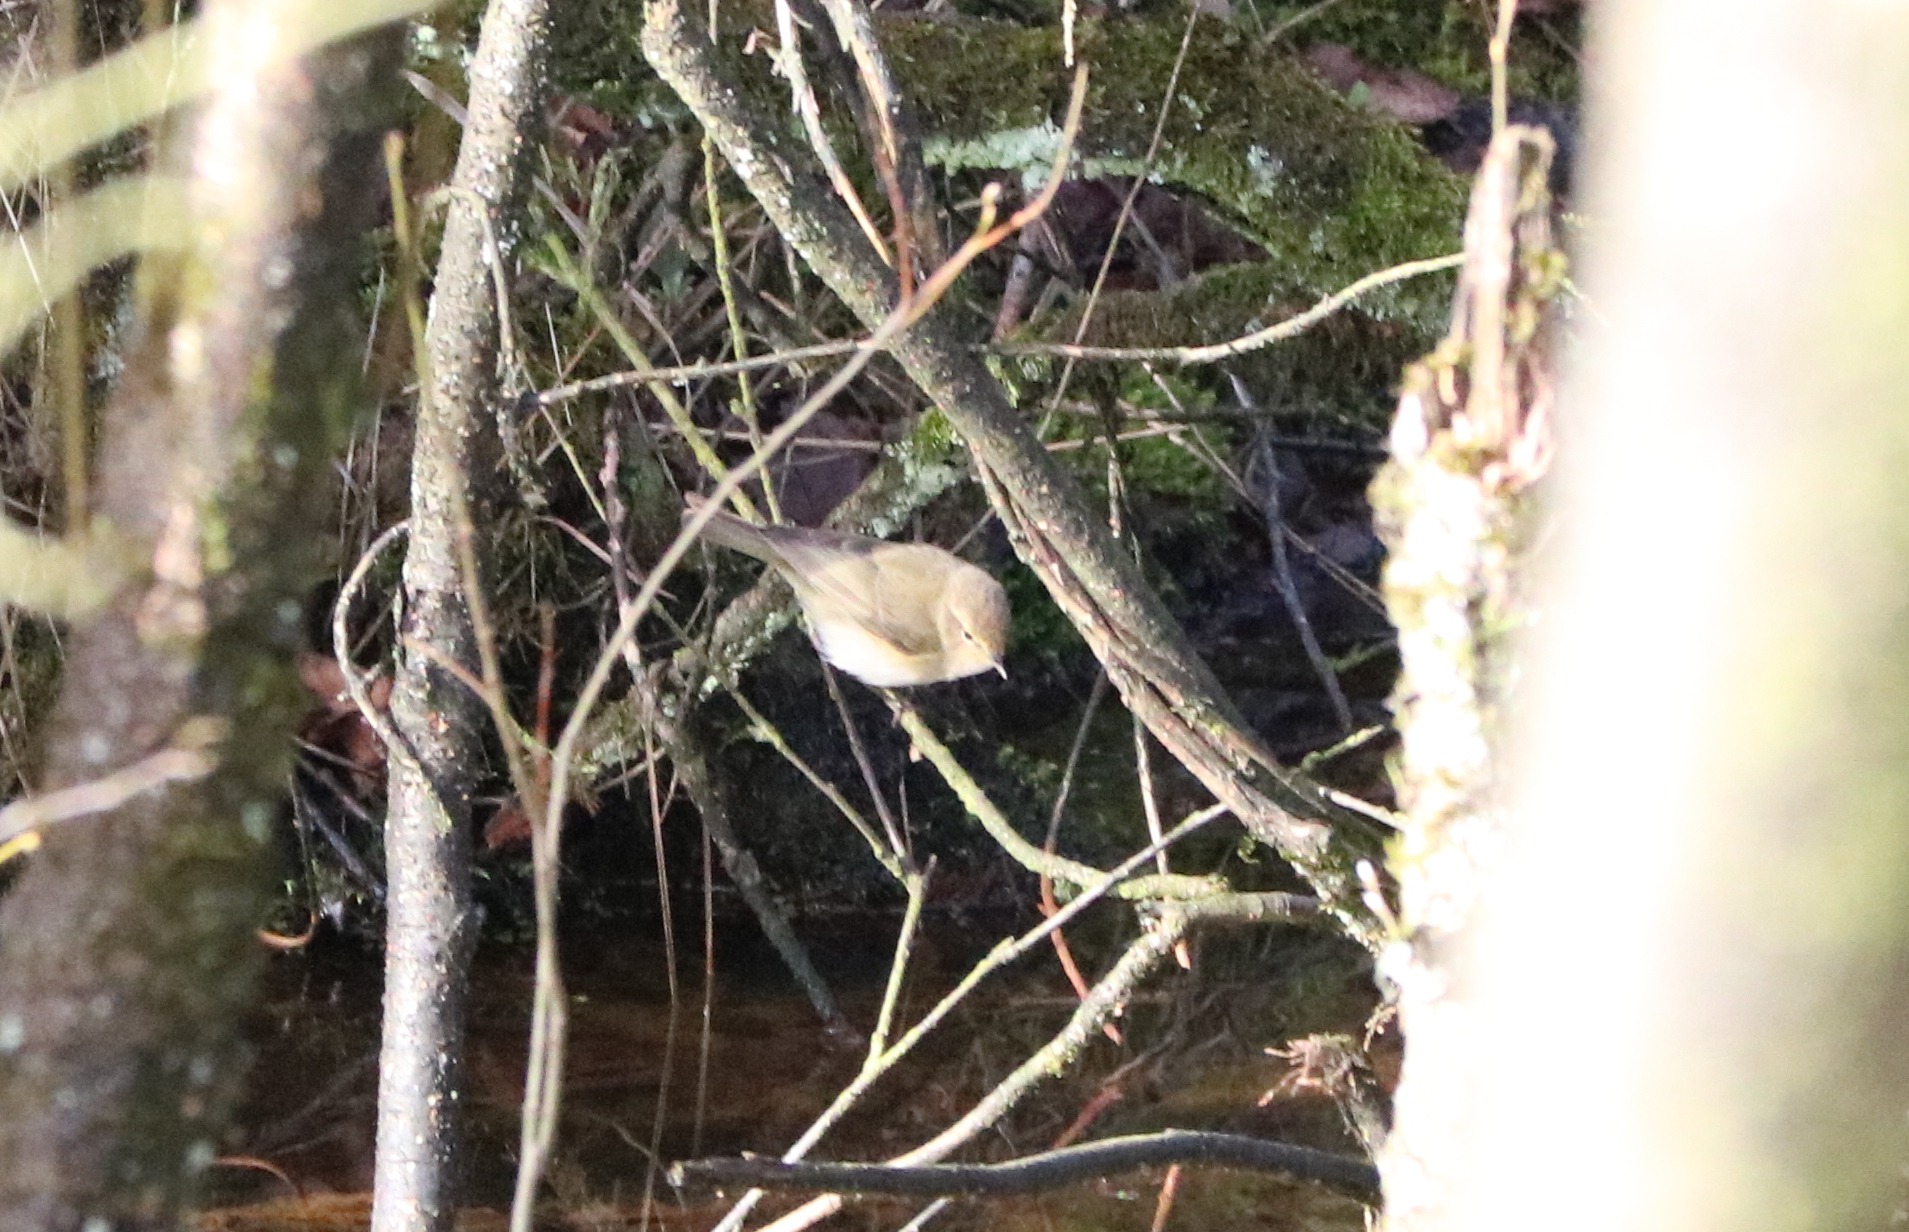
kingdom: Animalia
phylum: Chordata
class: Aves
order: Passeriformes
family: Phylloscopidae
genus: Phylloscopus
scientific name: Phylloscopus collybita
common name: Gransanger
